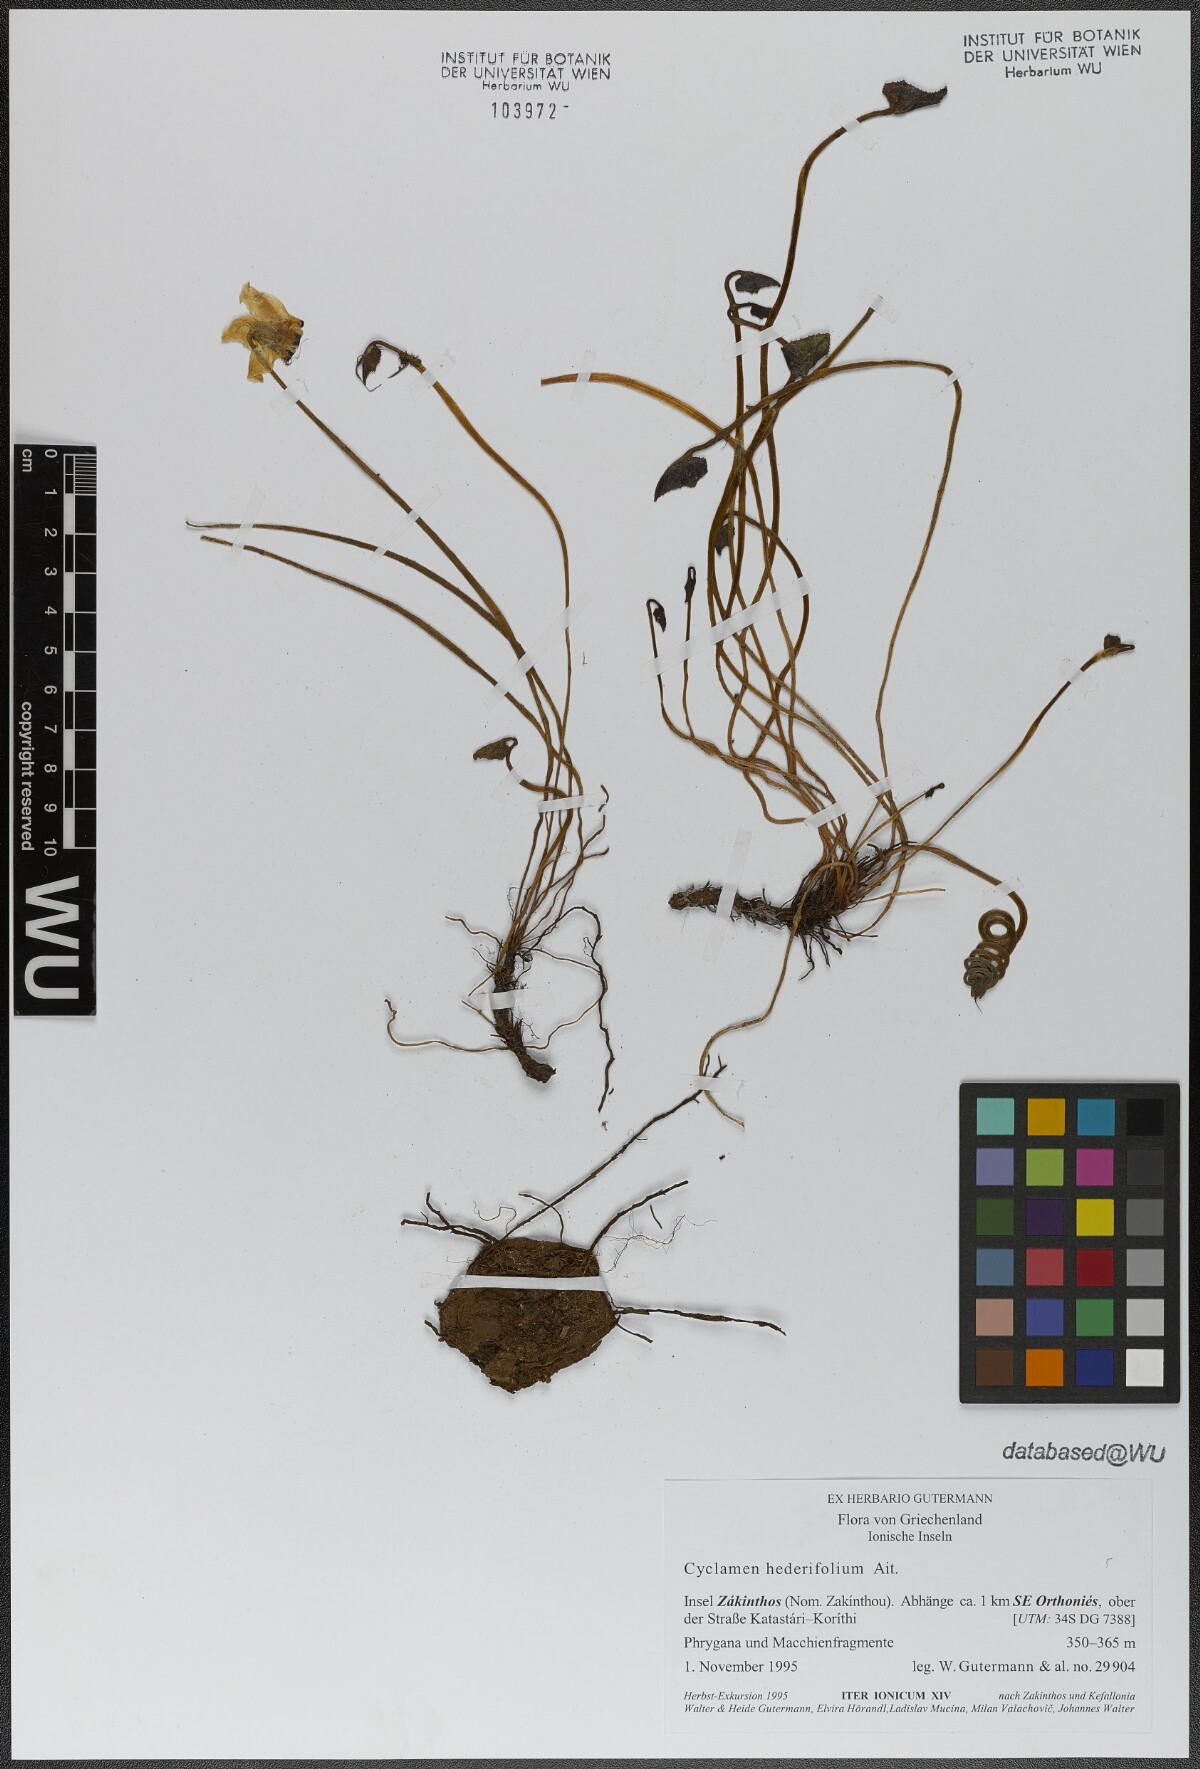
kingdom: Plantae
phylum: Tracheophyta
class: Magnoliopsida
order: Ericales
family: Primulaceae
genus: Cyclamen
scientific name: Cyclamen hederifolium
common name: Sowbread
